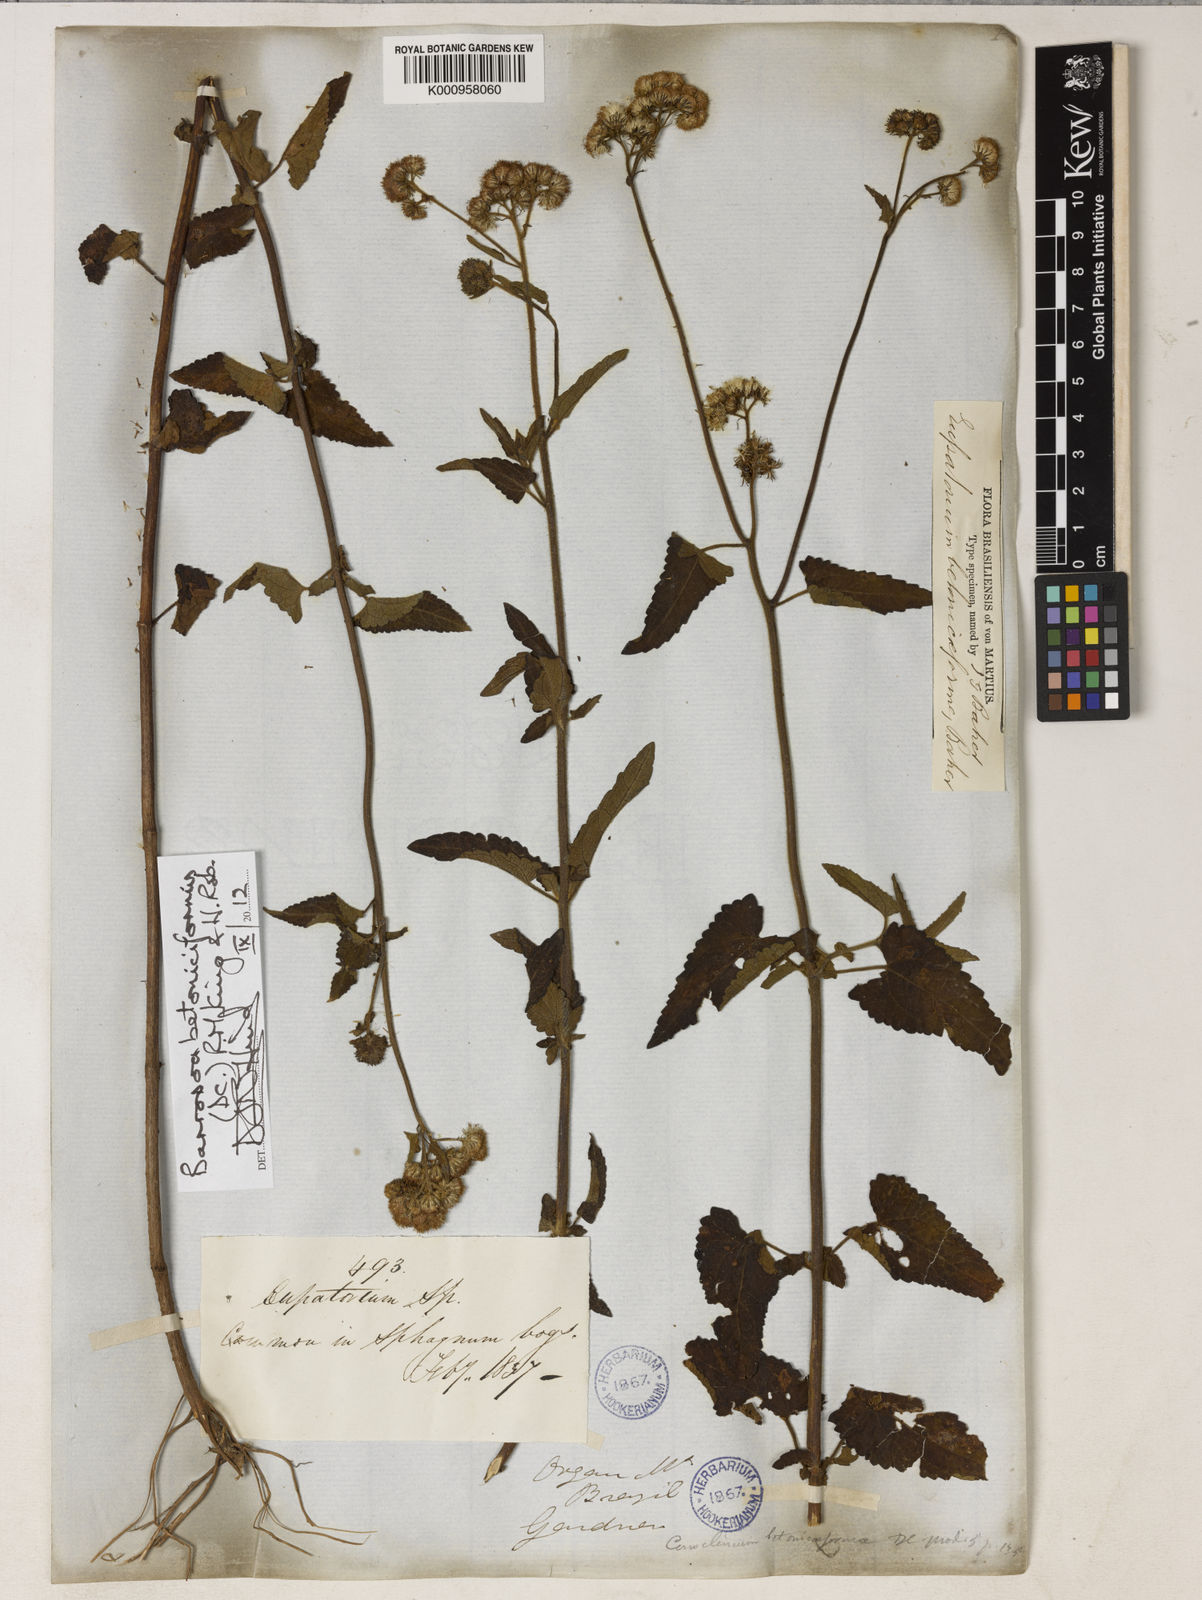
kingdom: Plantae
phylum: Tracheophyta
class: Magnoliopsida
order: Asterales
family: Asteraceae
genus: Barrosoa
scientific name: Barrosoa betoniciformis
